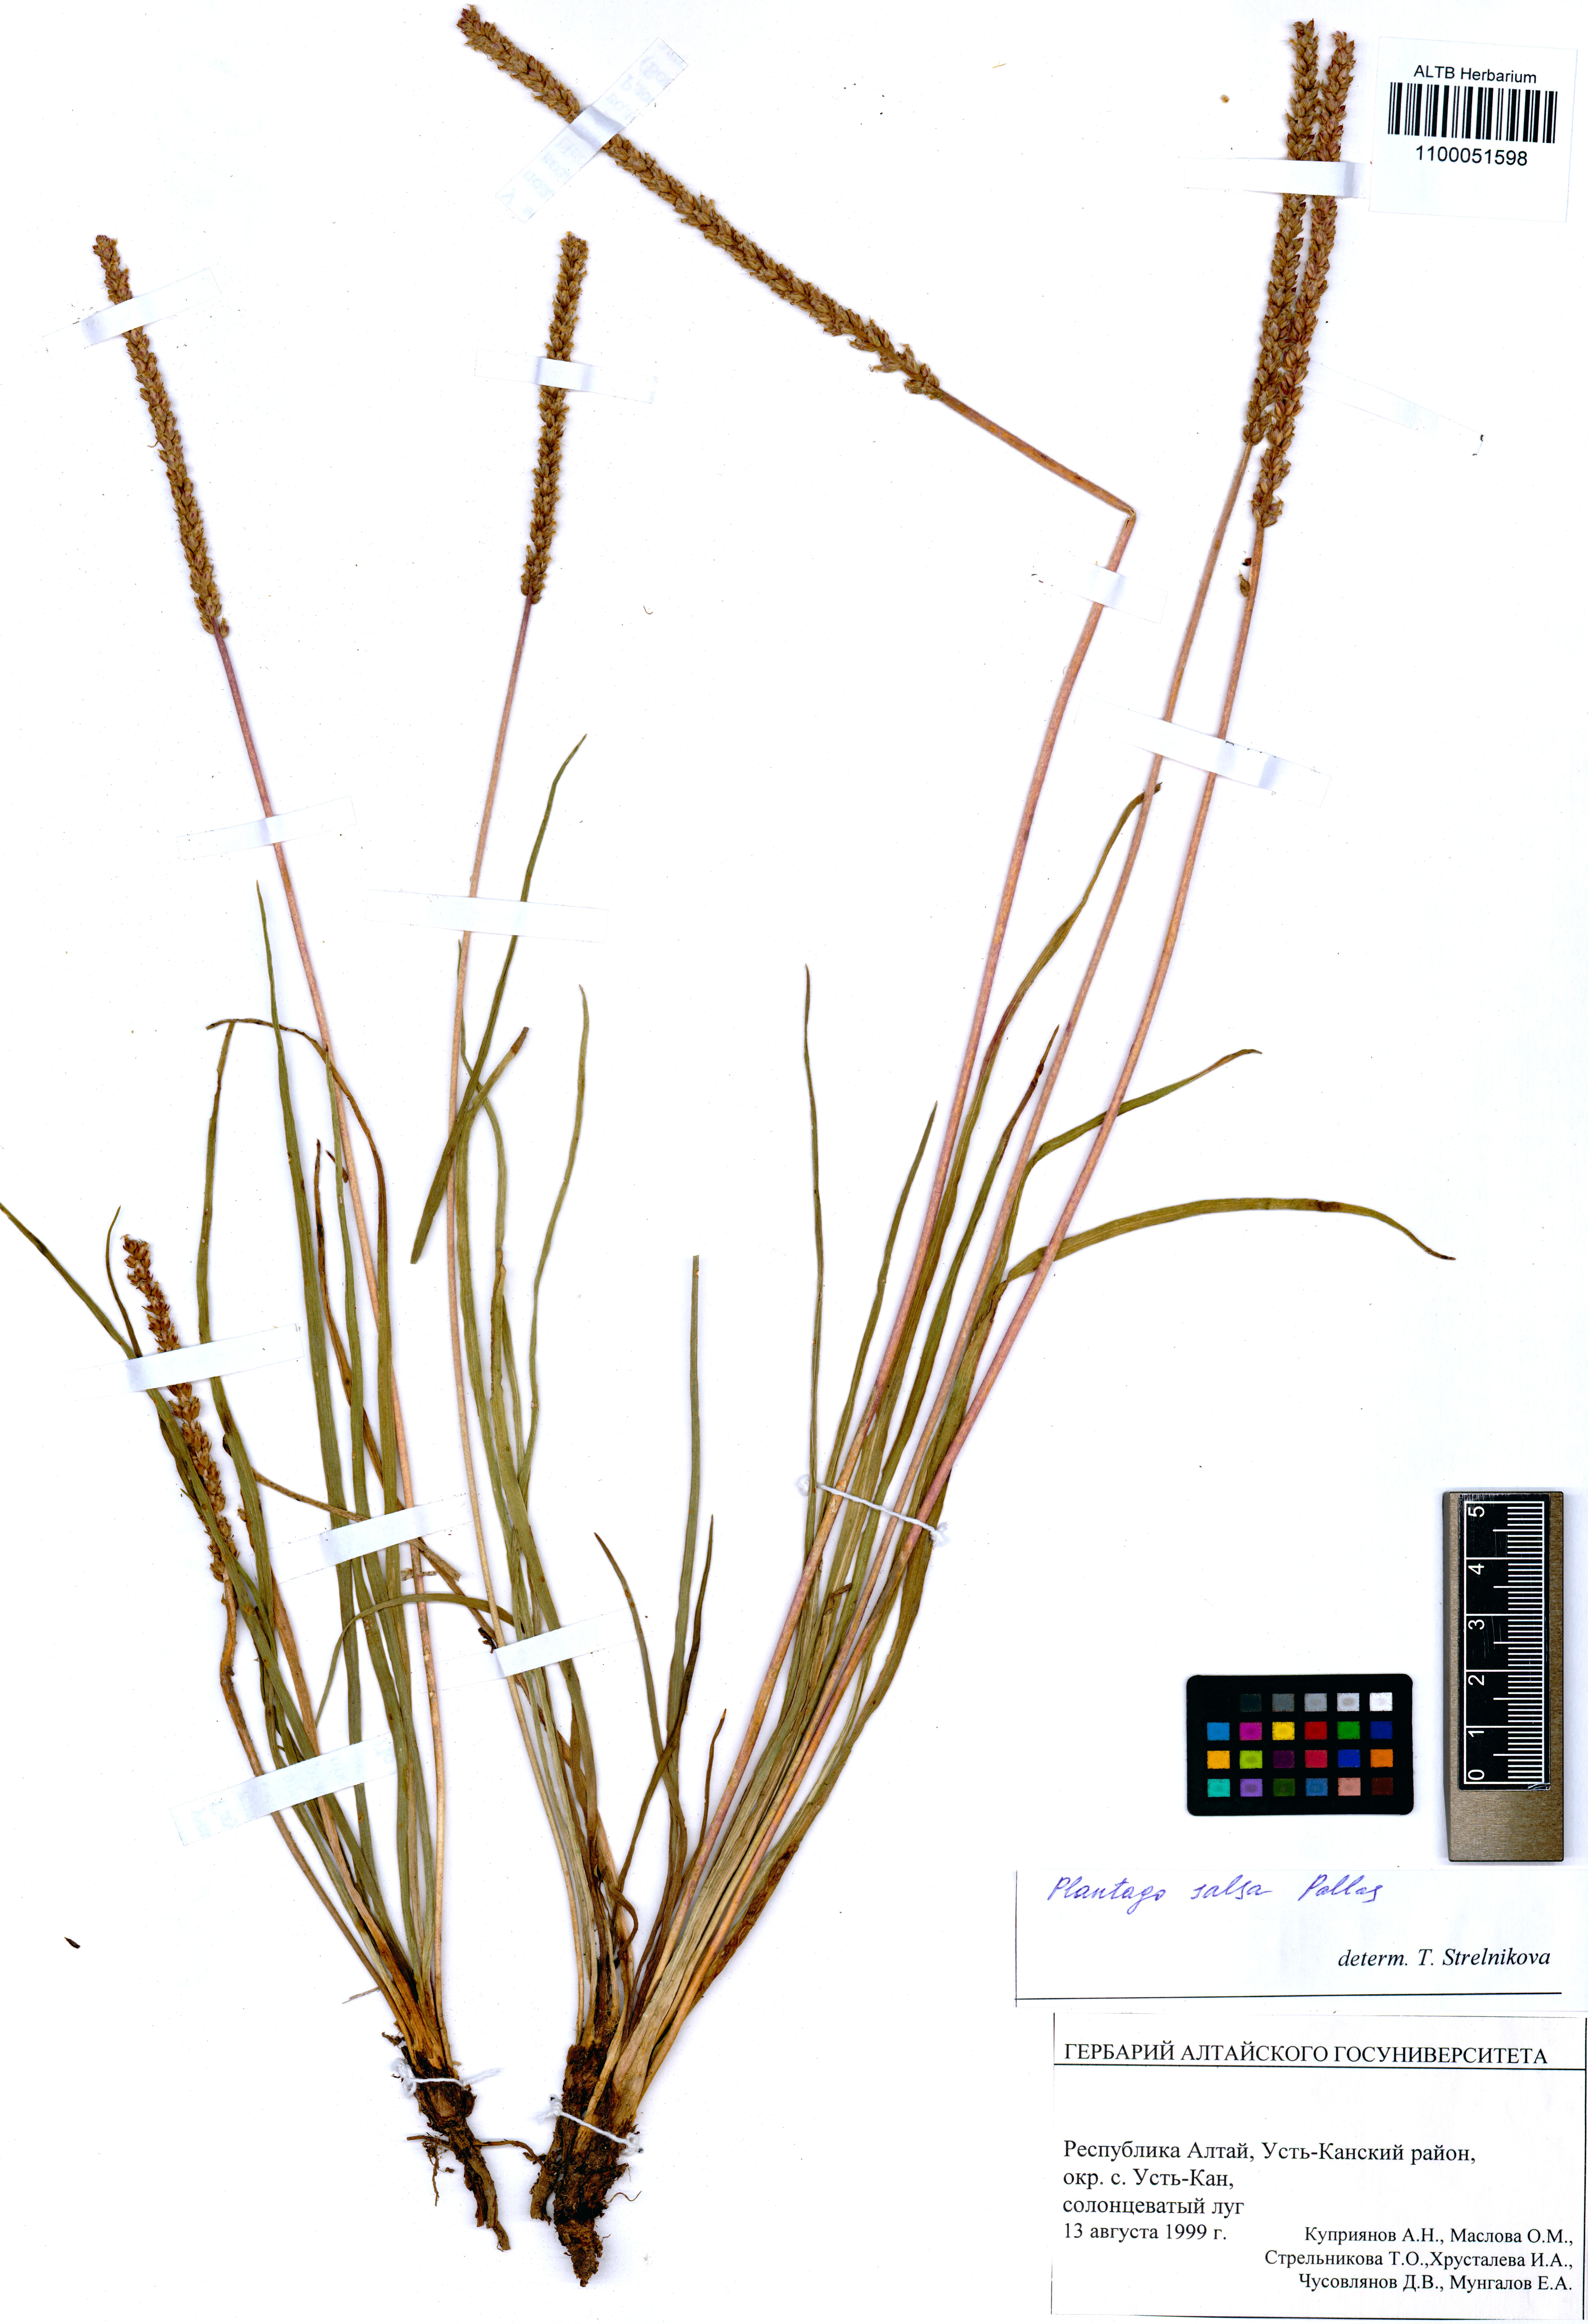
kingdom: Plantae
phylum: Tracheophyta
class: Magnoliopsida
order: Lamiales
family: Plantaginaceae
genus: Plantago
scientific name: Plantago salsa
